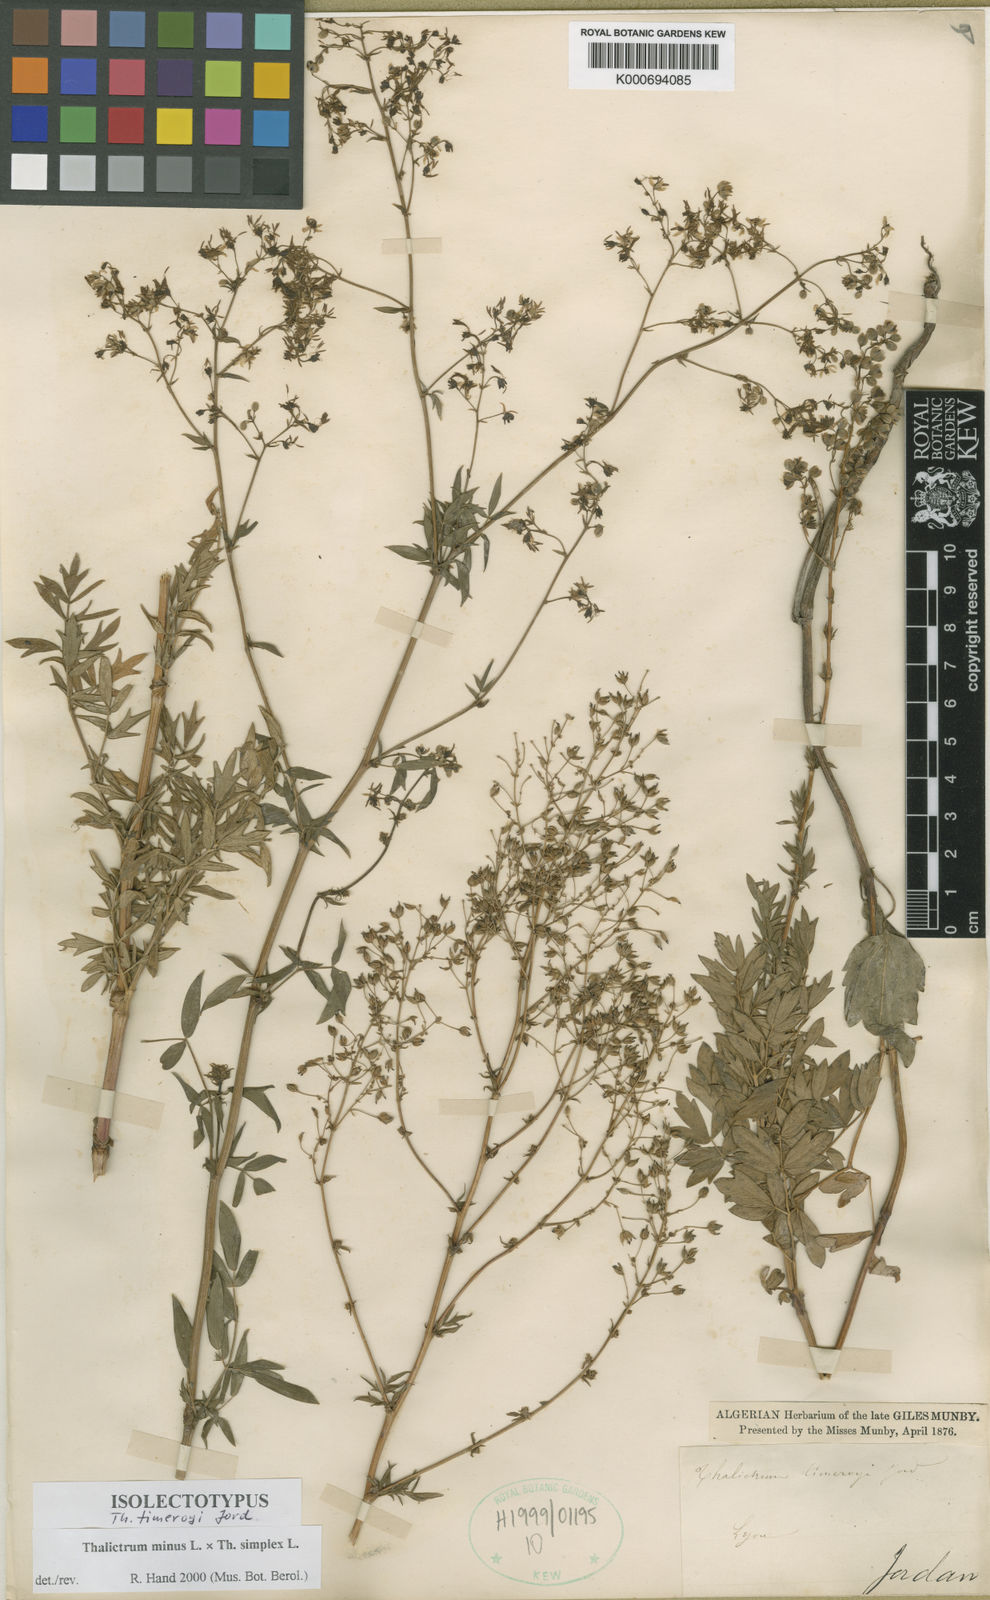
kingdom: Plantae
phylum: Tracheophyta
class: Magnoliopsida
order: Ranunculales
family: Ranunculaceae
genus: Thalictrum
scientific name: Thalictrum minus
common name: Lesser meadow-rue
